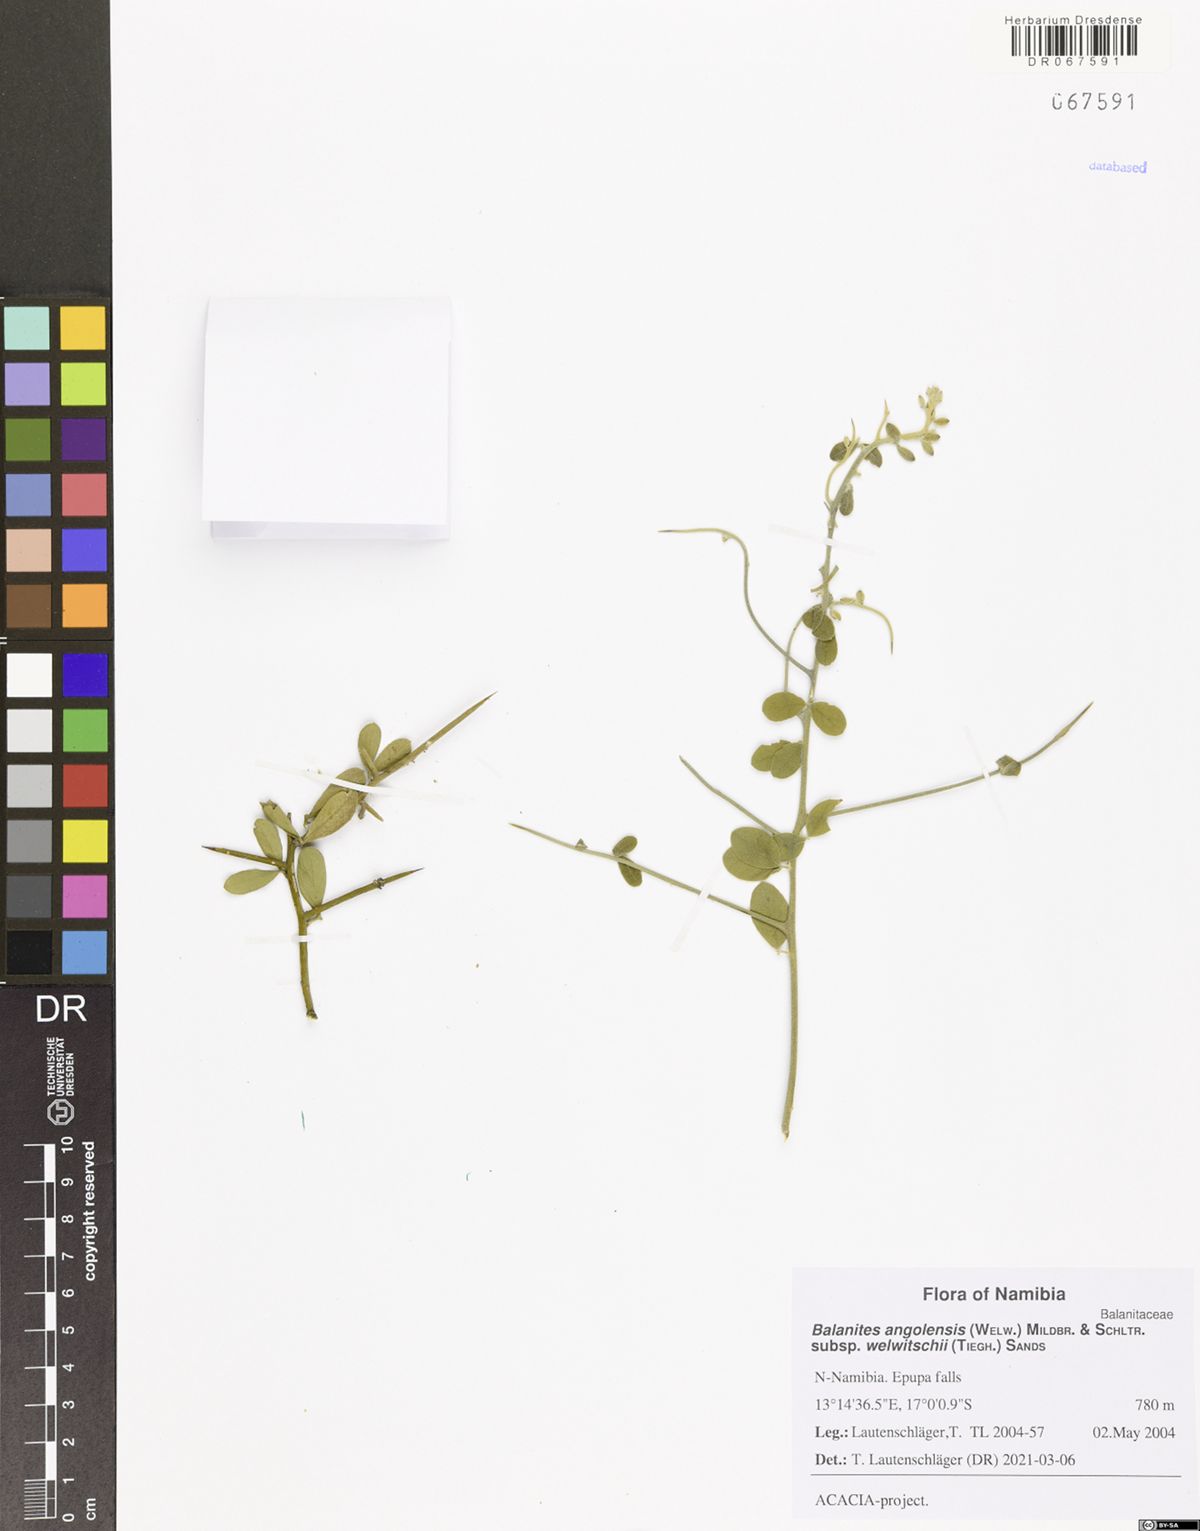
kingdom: Plantae
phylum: Tracheophyta
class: Magnoliopsida
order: Zygophyllales
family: Zygophyllaceae
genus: Balanites
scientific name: Balanites angolensis
